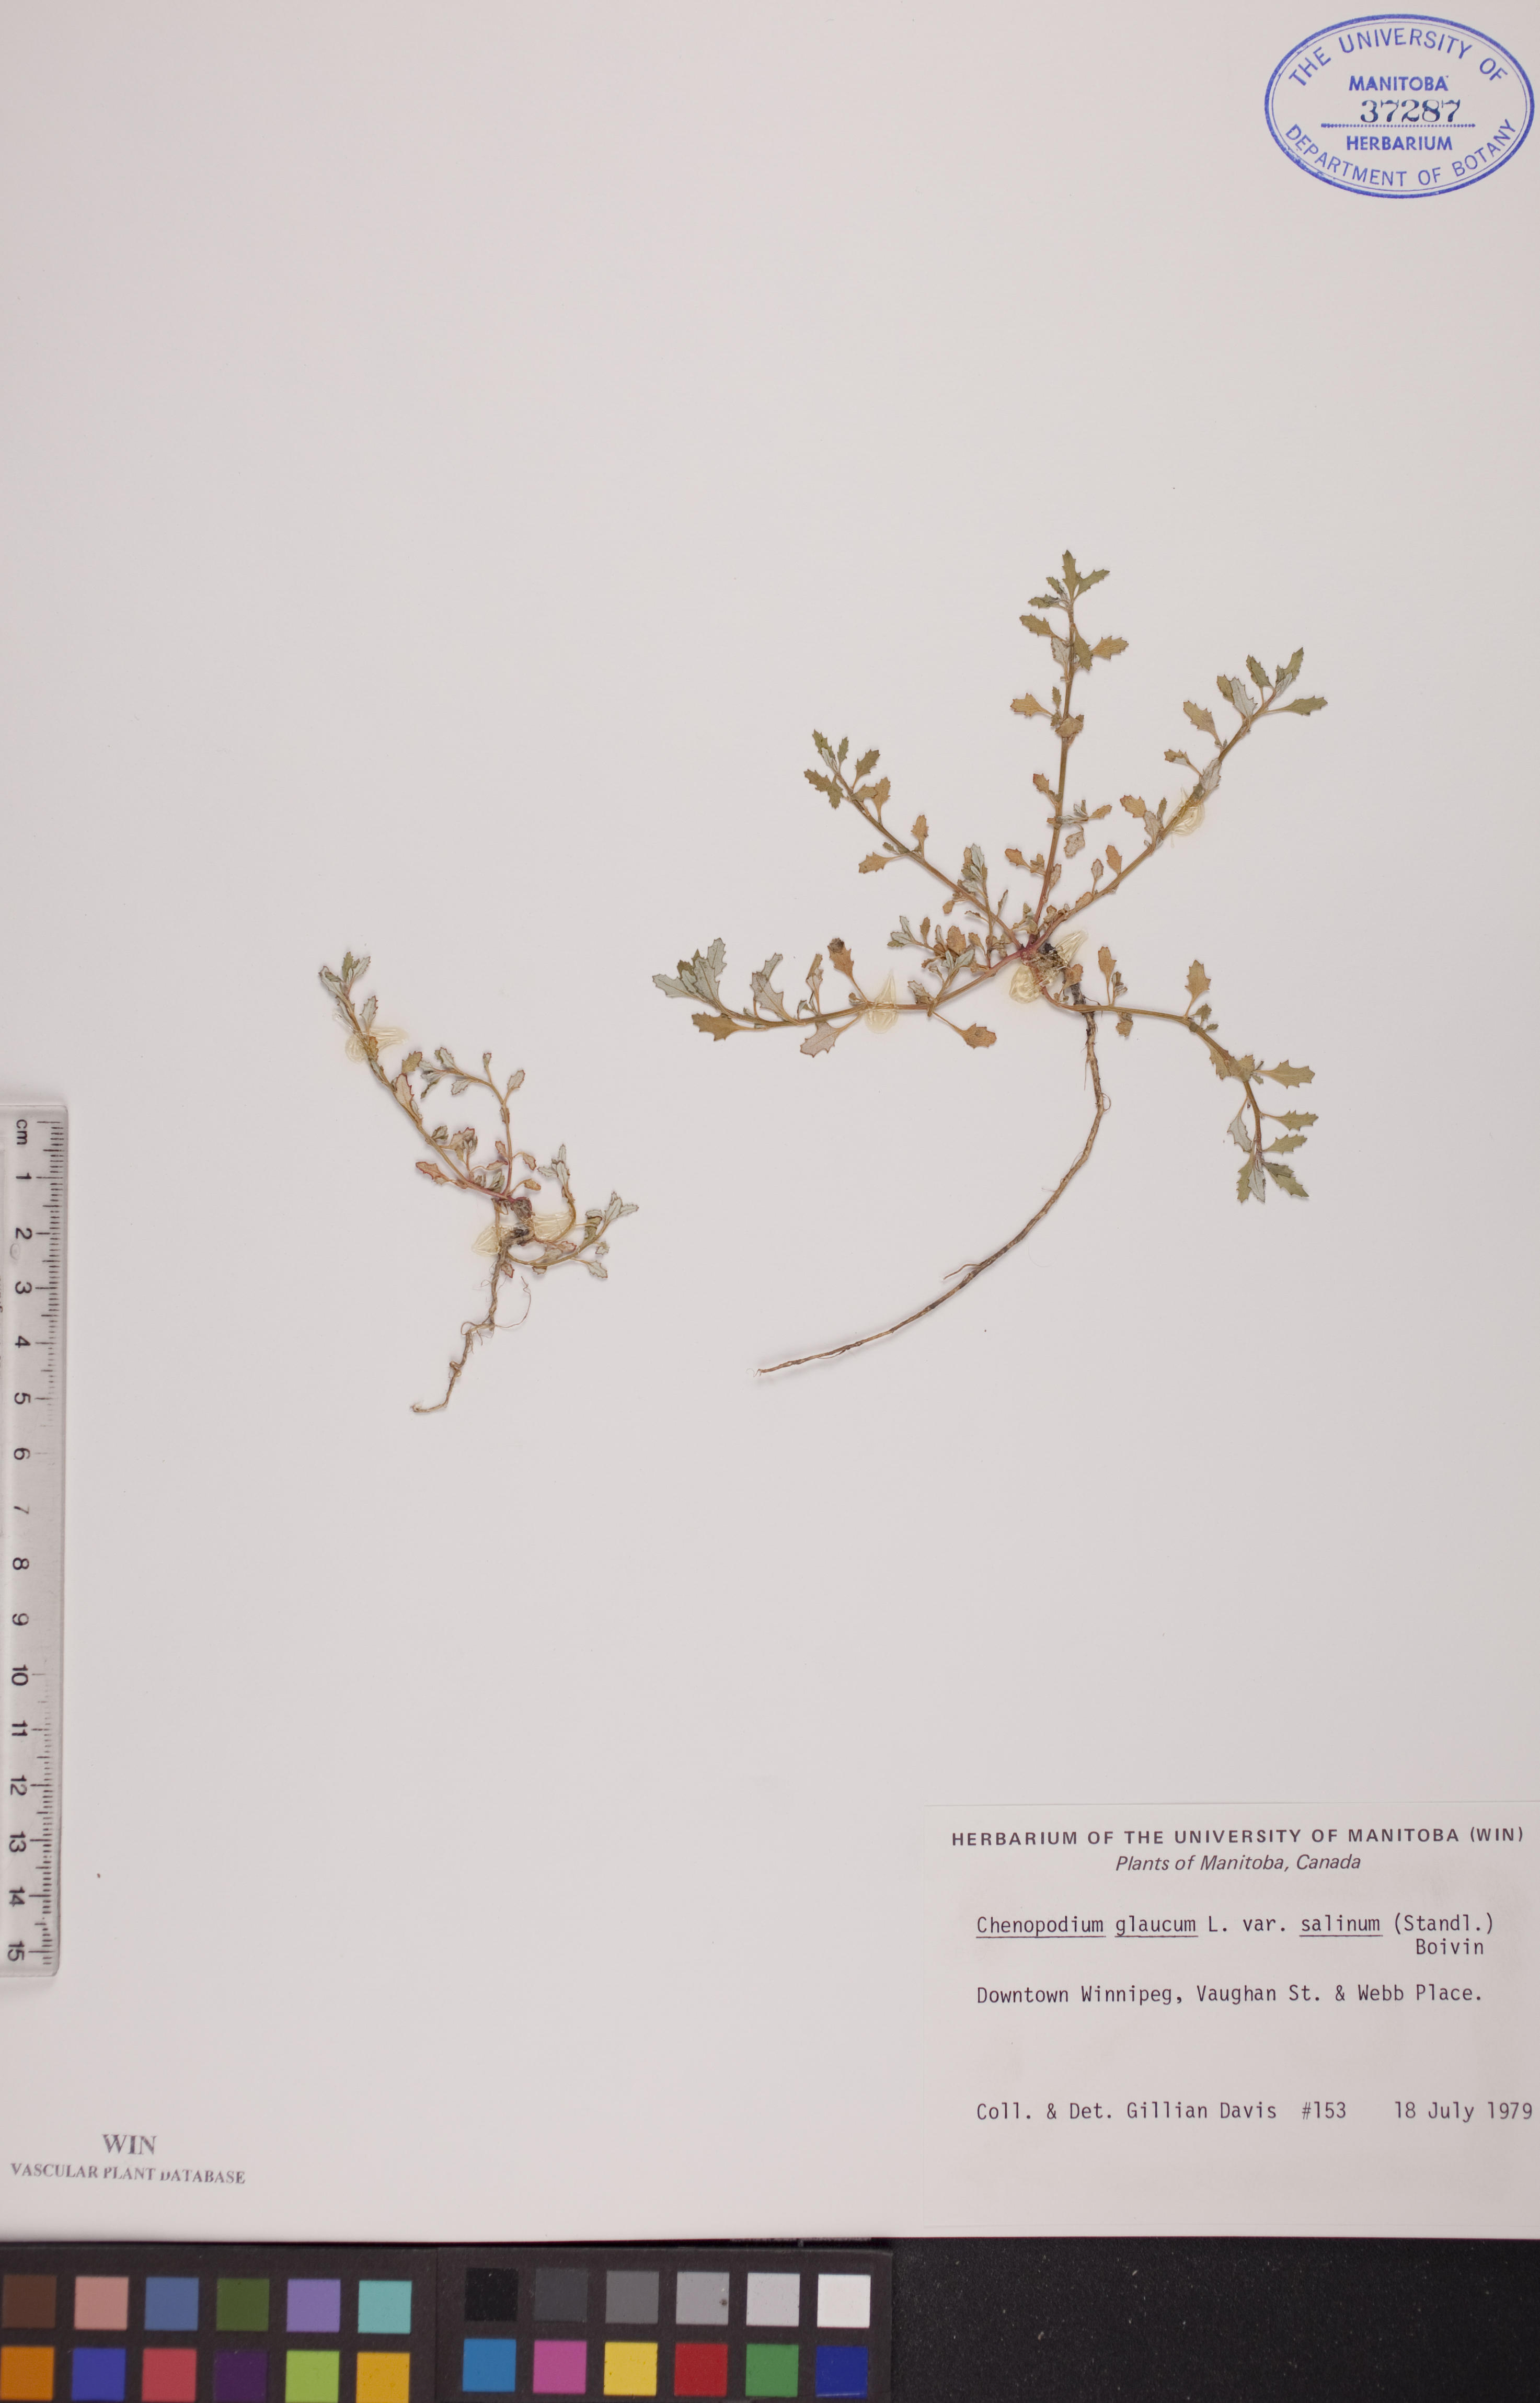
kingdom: Plantae
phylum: Tracheophyta
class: Magnoliopsida
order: Caryophyllales
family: Amaranthaceae
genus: Oxybasis
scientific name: Oxybasis salina
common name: Rocky mountain goosefoot
